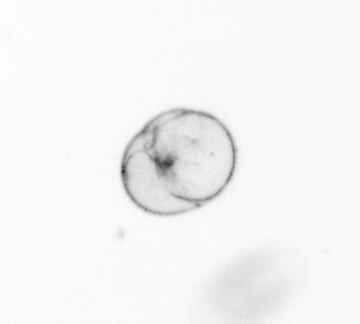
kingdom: Chromista
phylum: Myzozoa
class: Dinophyceae
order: Noctilucales
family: Noctilucaceae
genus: Noctiluca
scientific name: Noctiluca scintillans
